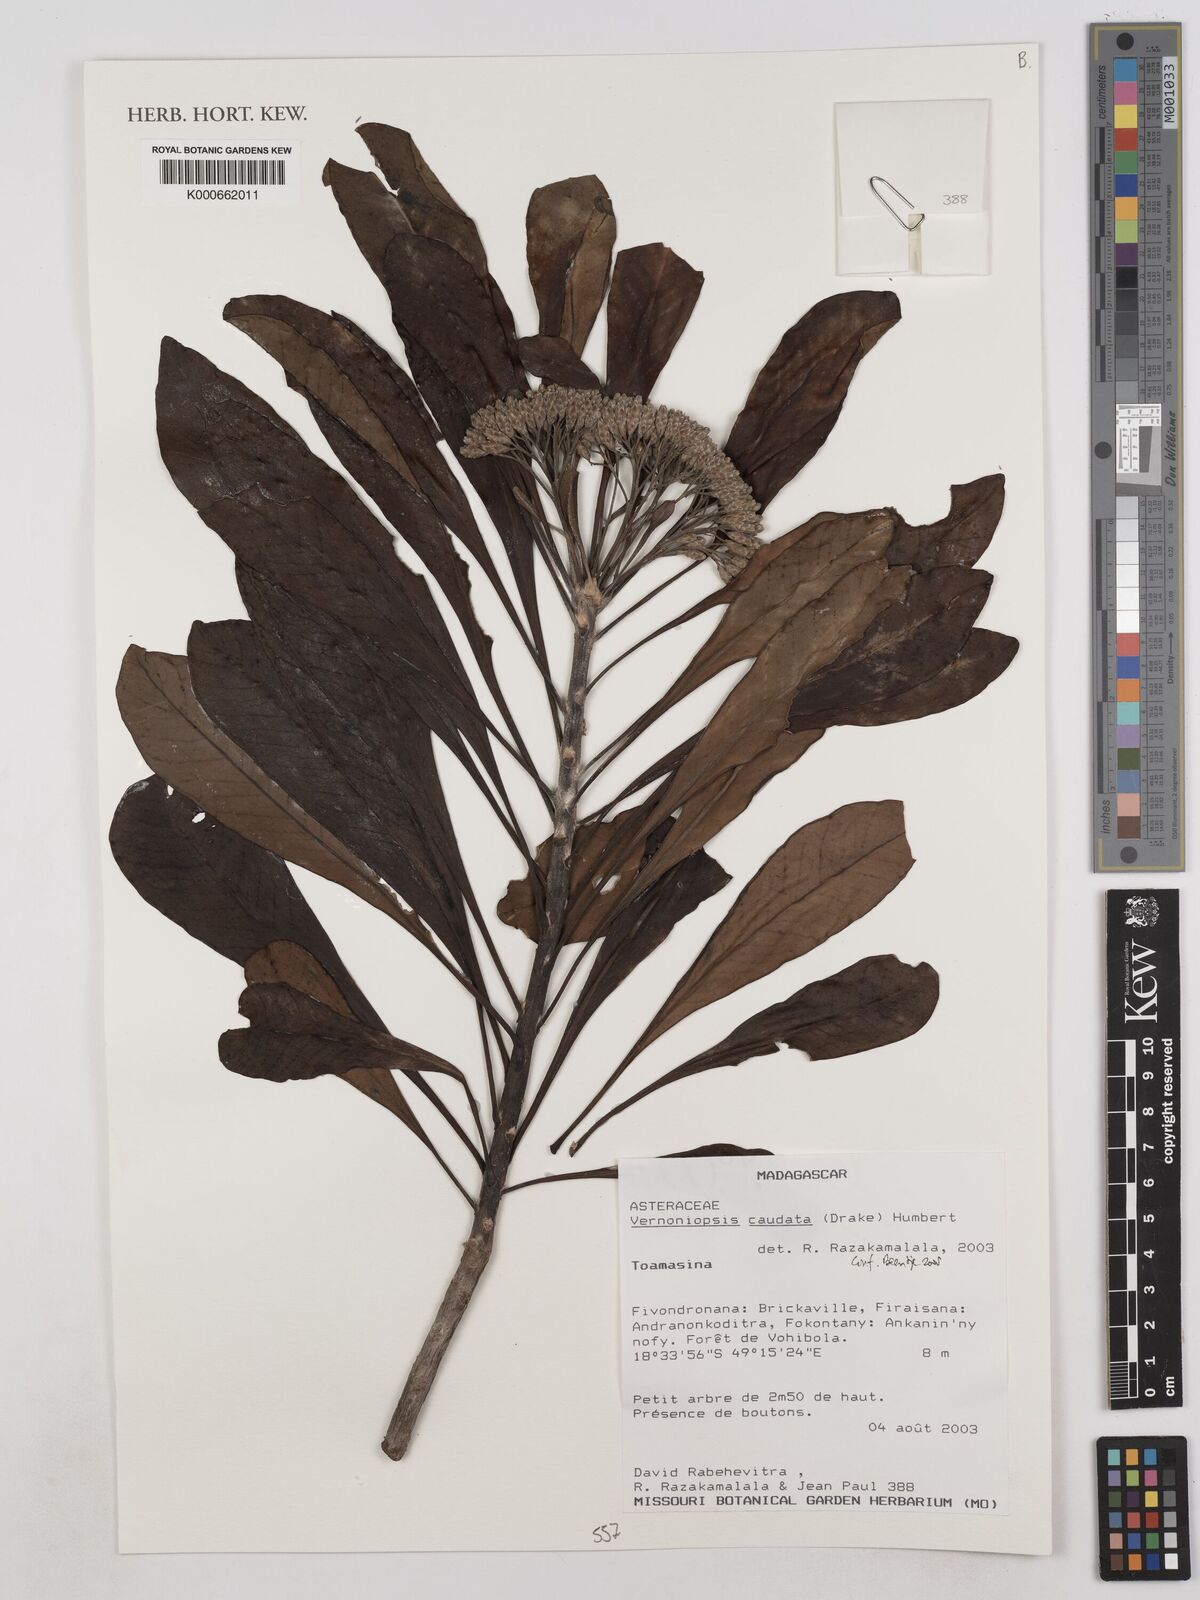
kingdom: Plantae
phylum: Tracheophyta
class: Magnoliopsida
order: Asterales
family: Asteraceae
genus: Vernoniopsis
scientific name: Vernoniopsis caudata
